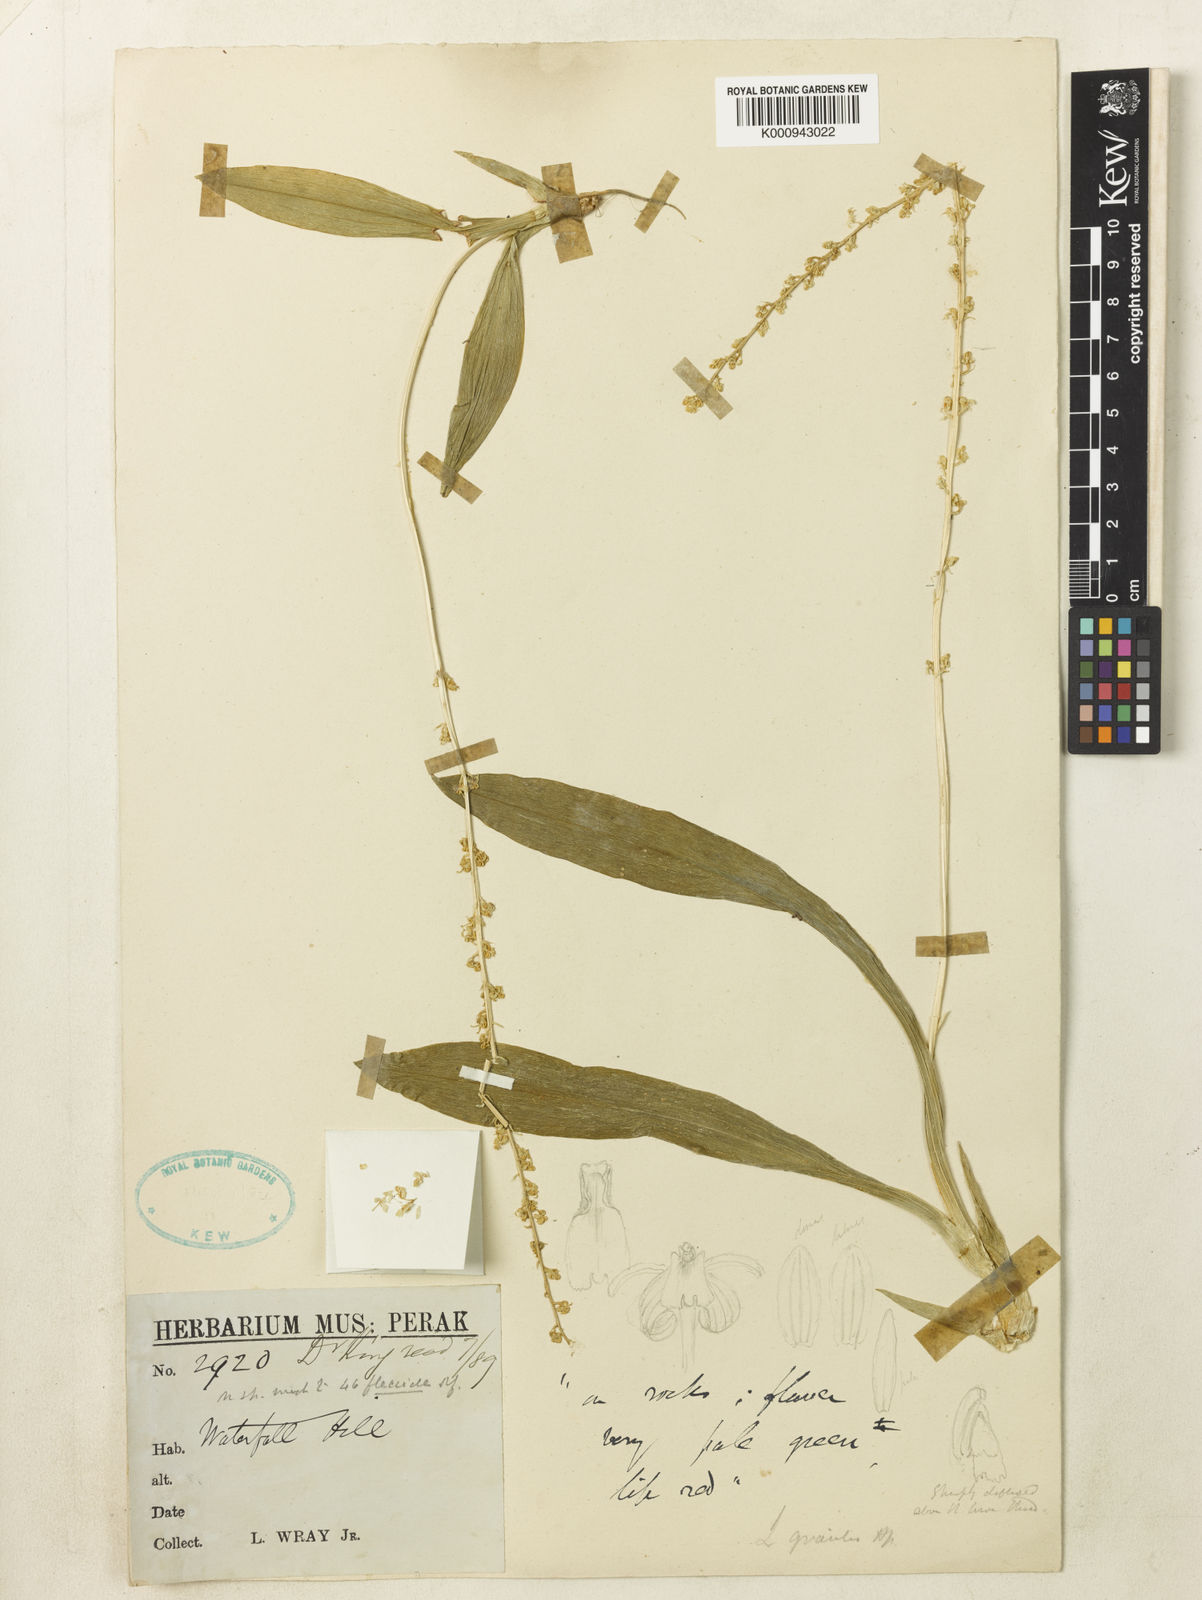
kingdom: Plantae
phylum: Tracheophyta
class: Liliopsida
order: Asparagales
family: Orchidaceae
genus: Liparis
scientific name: Liparis elegans
